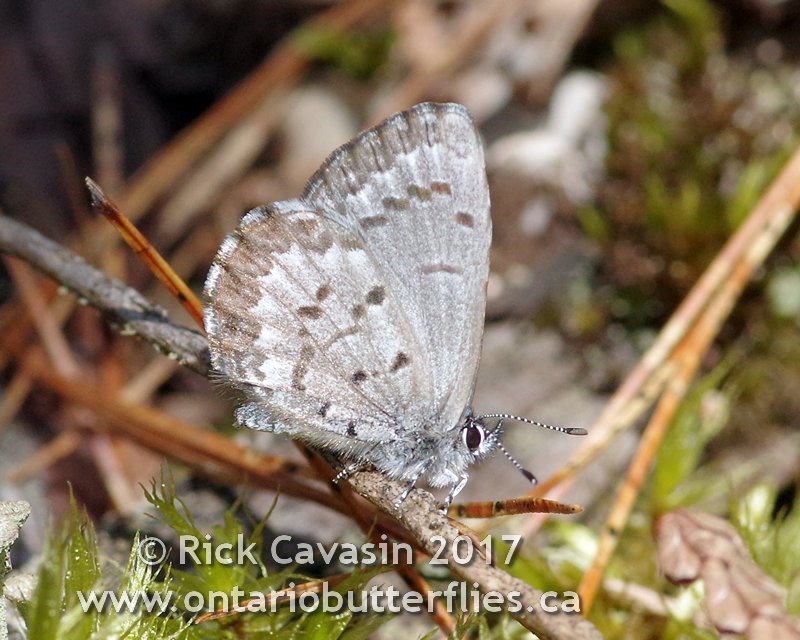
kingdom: Animalia
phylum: Arthropoda
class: Insecta
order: Lepidoptera
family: Lycaenidae
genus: Celastrina
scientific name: Celastrina lucia
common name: Northern Spring Azure
